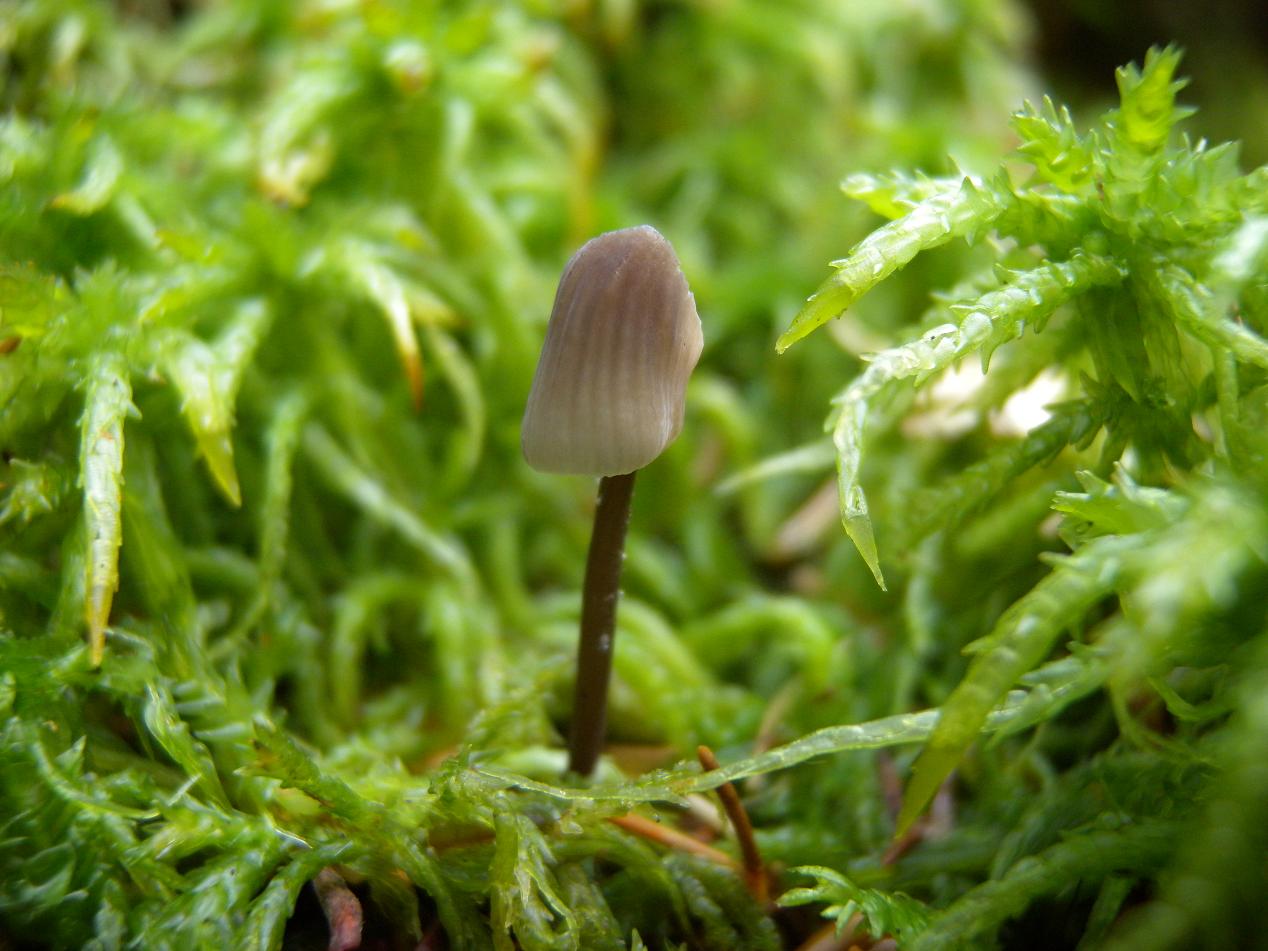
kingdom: Fungi
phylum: Basidiomycota
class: Agaricomycetes
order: Agaricales
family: Entolomataceae
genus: Entoloma
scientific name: Entoloma cetratum
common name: voks-rødblad
